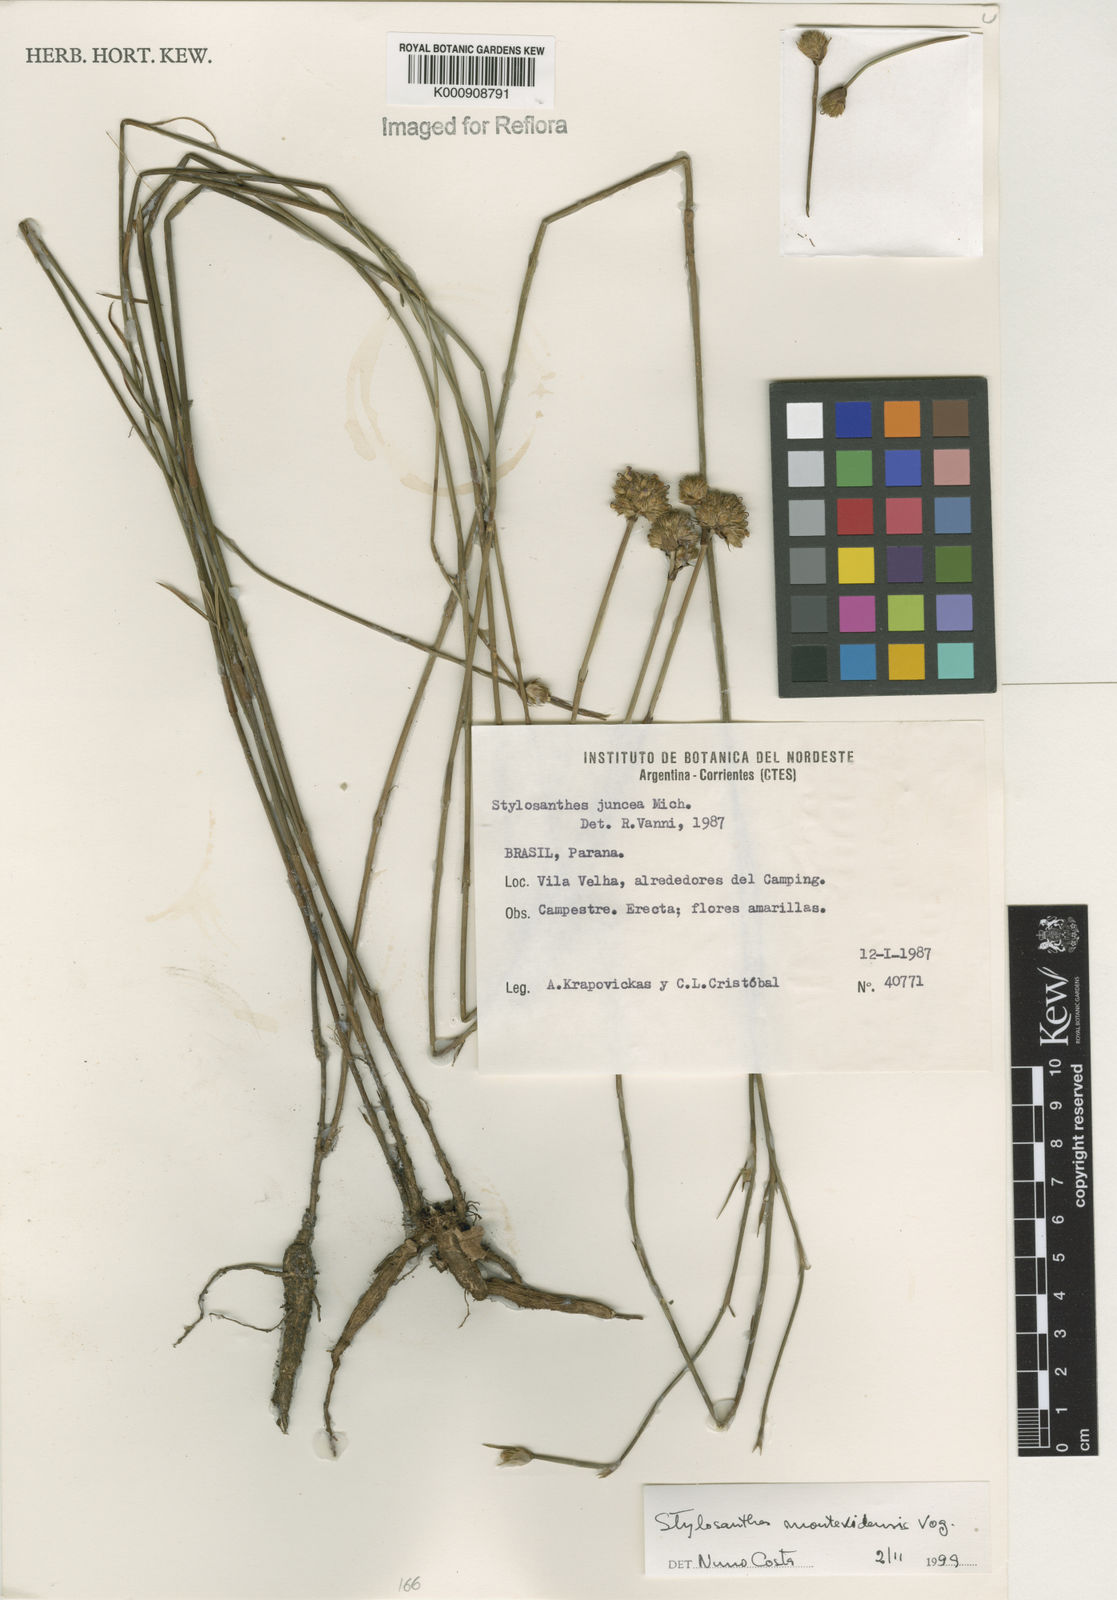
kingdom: Plantae
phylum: Tracheophyta
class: Magnoliopsida
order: Fabales
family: Fabaceae
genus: Stylosanthes
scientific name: Stylosanthes montevidensis
